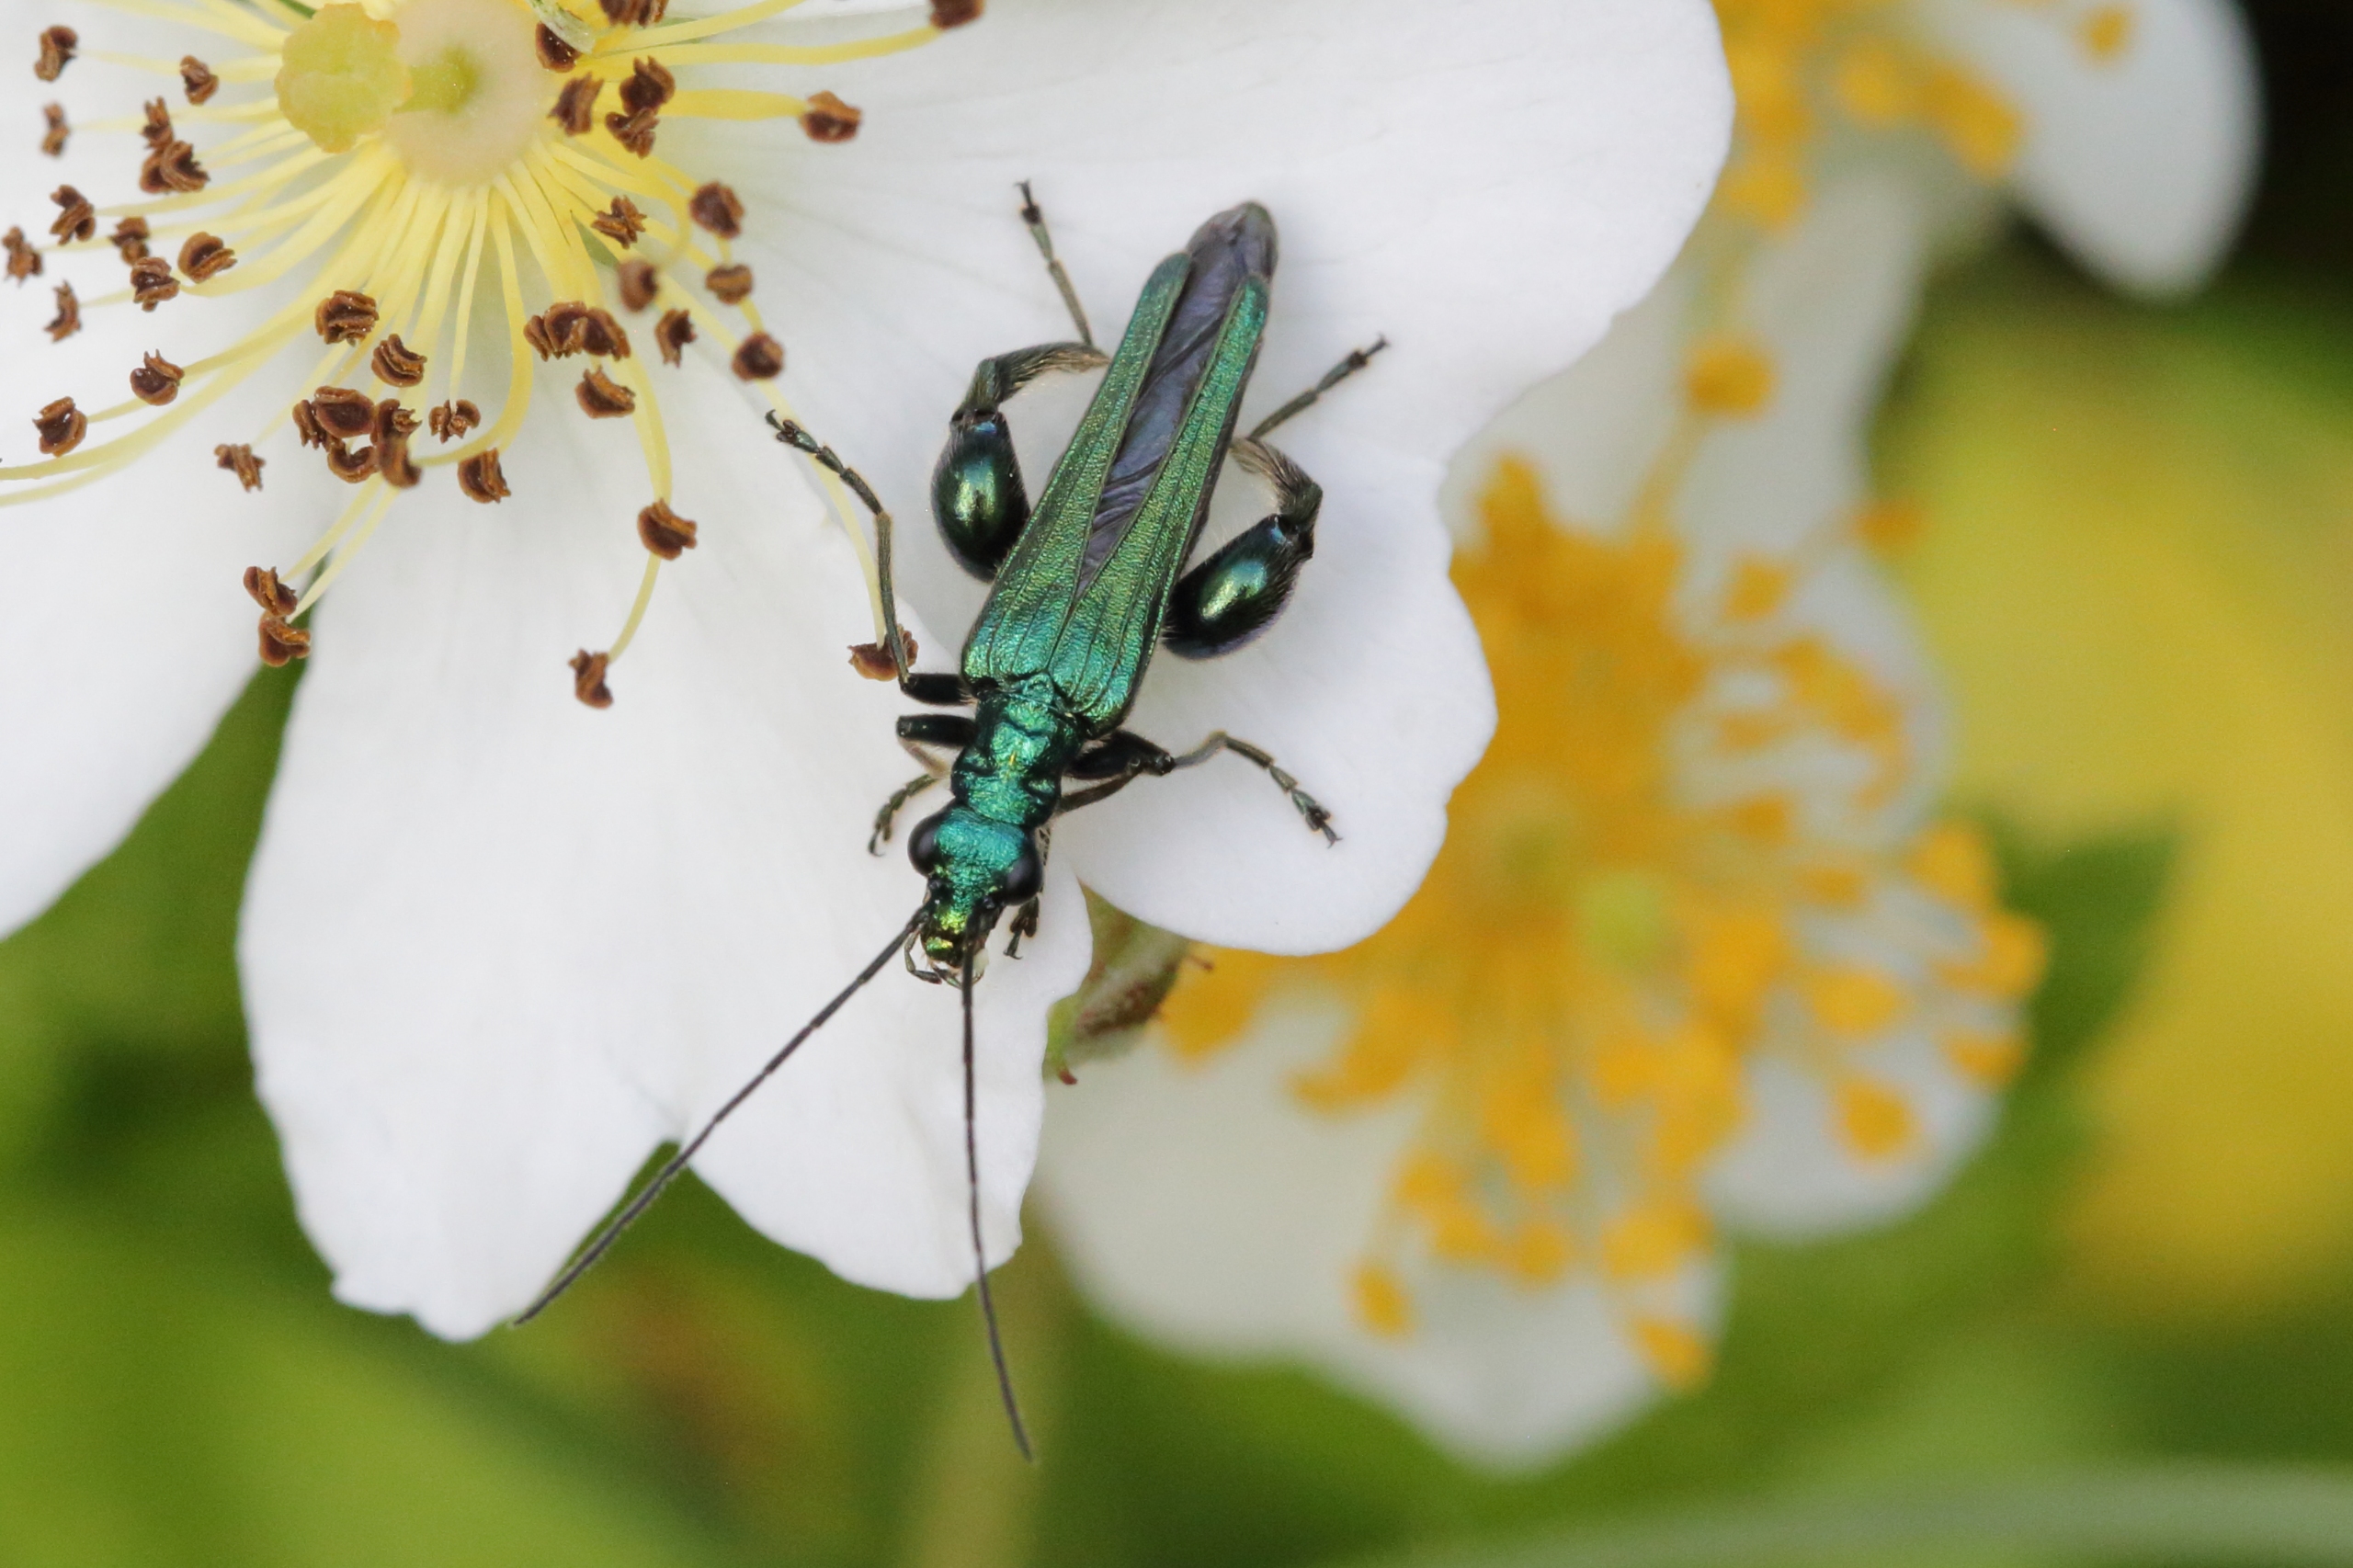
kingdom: Animalia
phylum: Arthropoda
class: Insecta
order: Coleoptera
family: Oedemeridae
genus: Oedemera
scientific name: Oedemera nobilis
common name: Tyklårssolbille
